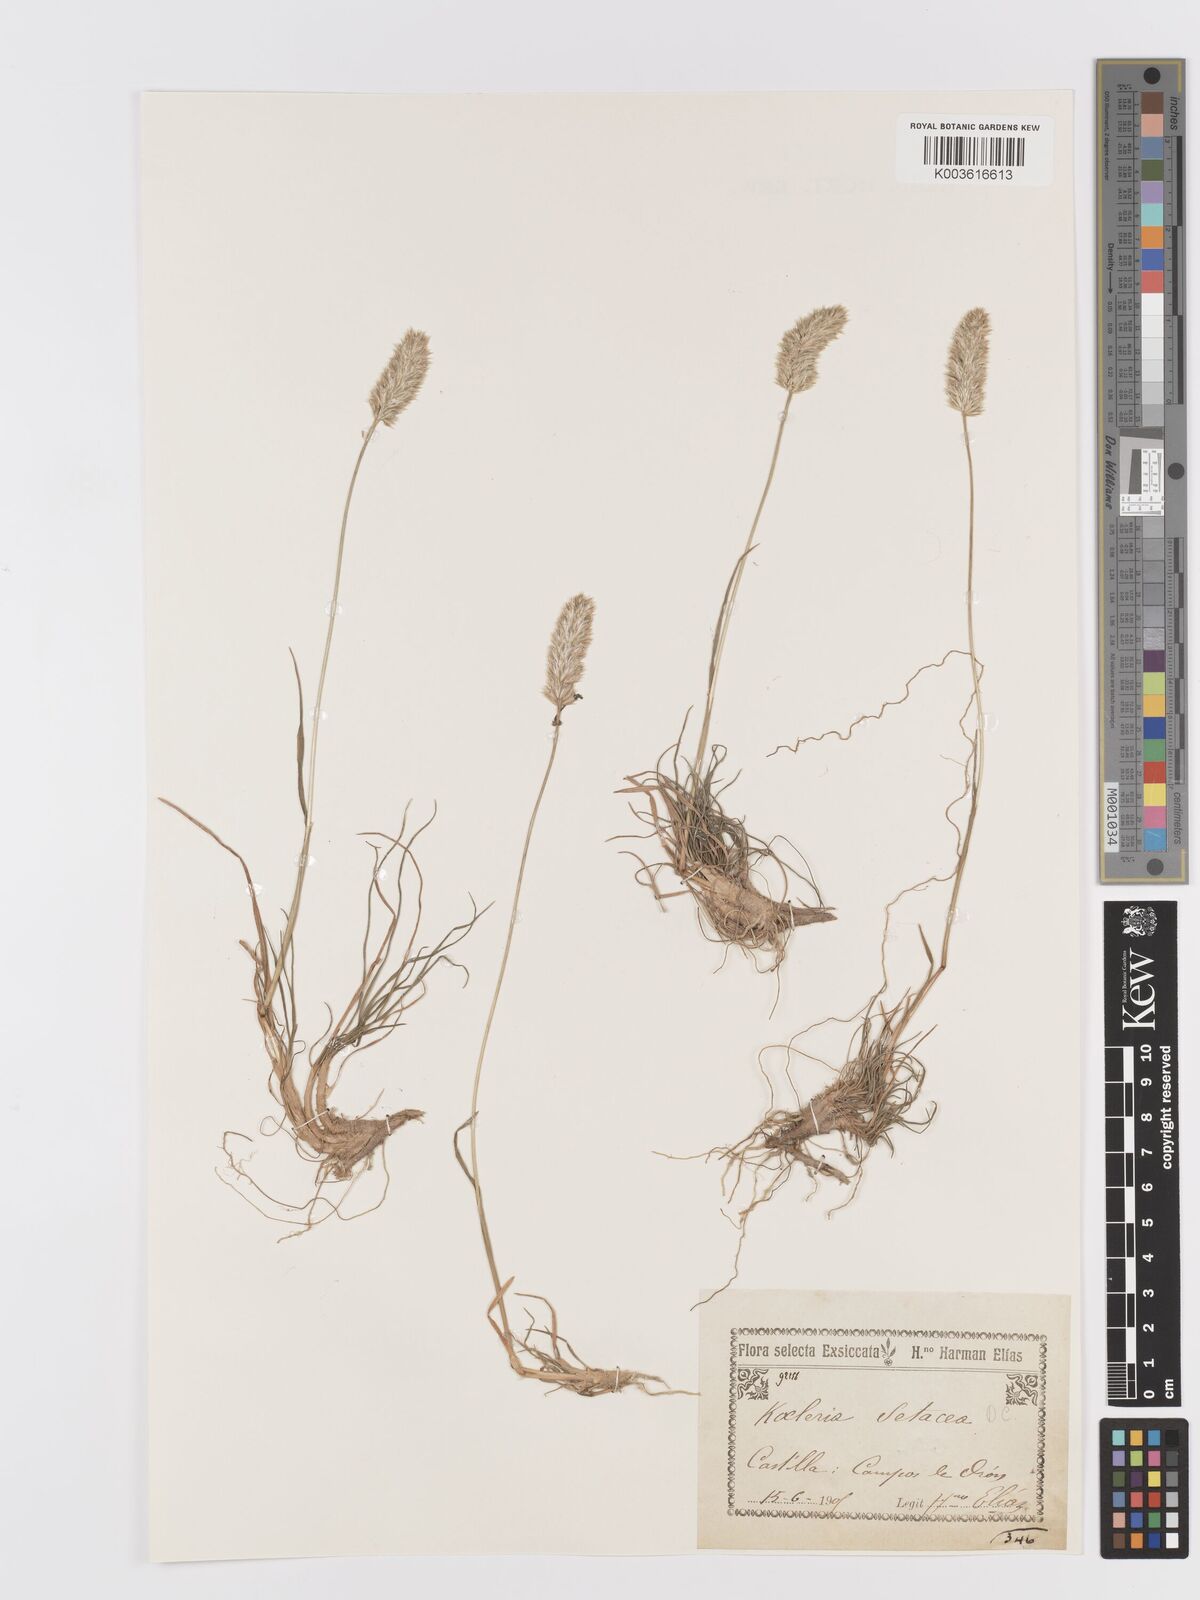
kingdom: Plantae
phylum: Tracheophyta
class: Liliopsida
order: Poales
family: Poaceae
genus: Koeleria
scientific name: Koeleria vallesiana
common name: Somerset hair-grass
